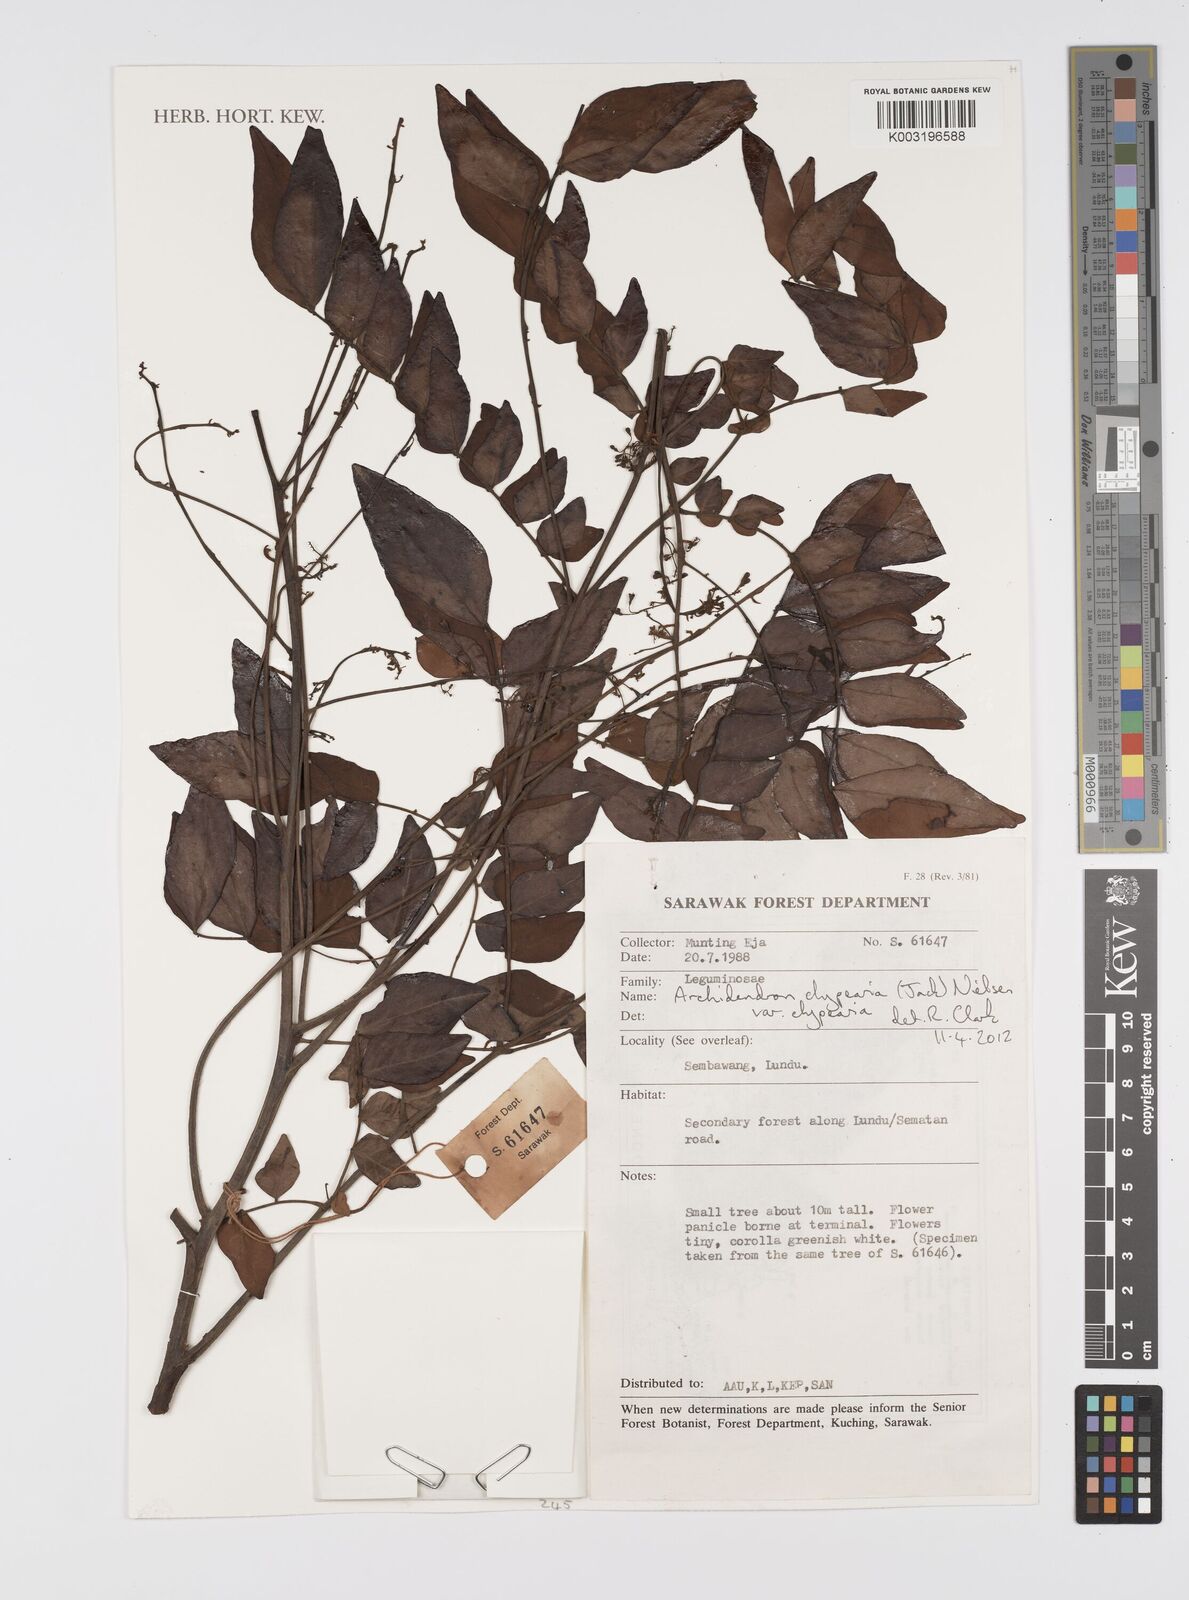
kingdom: Plantae
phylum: Tracheophyta
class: Magnoliopsida
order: Fabales
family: Fabaceae
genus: Archidendron
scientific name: Archidendron clypearia
